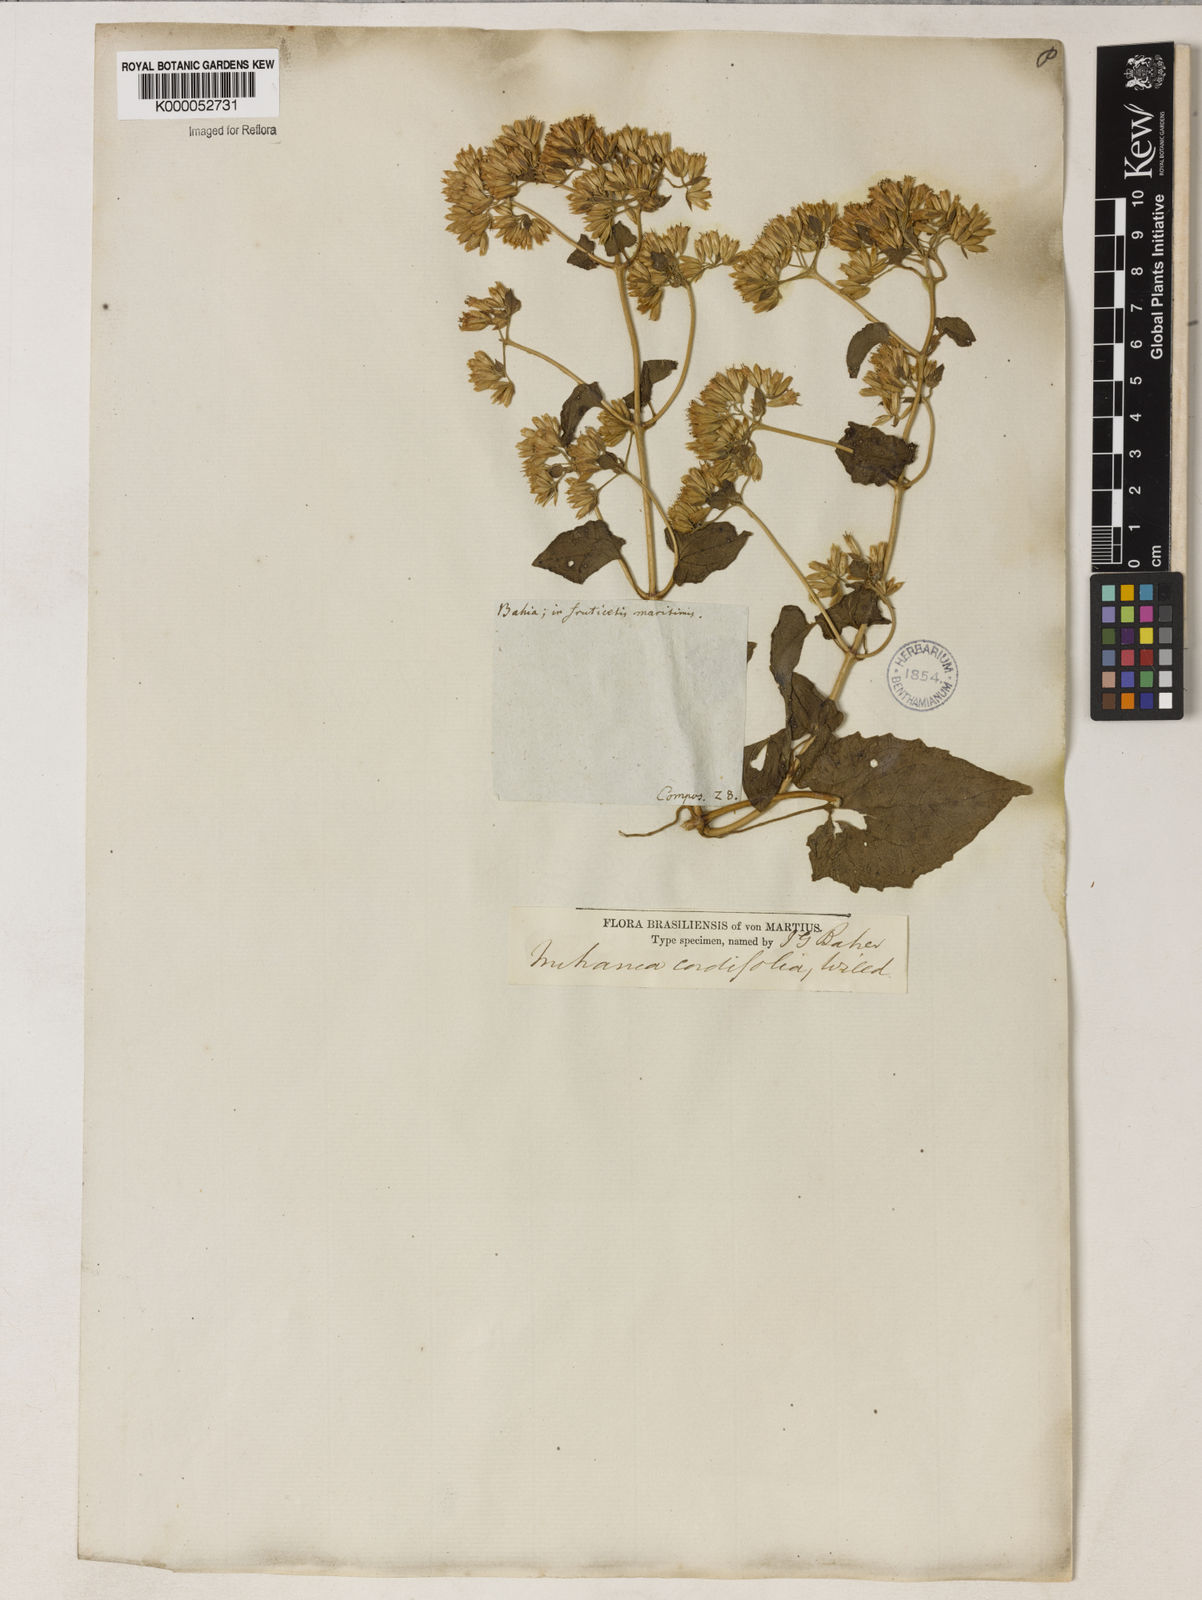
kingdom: Plantae
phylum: Tracheophyta
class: Magnoliopsida
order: Asterales
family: Asteraceae
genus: Mikania
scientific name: Mikania cordifolia
